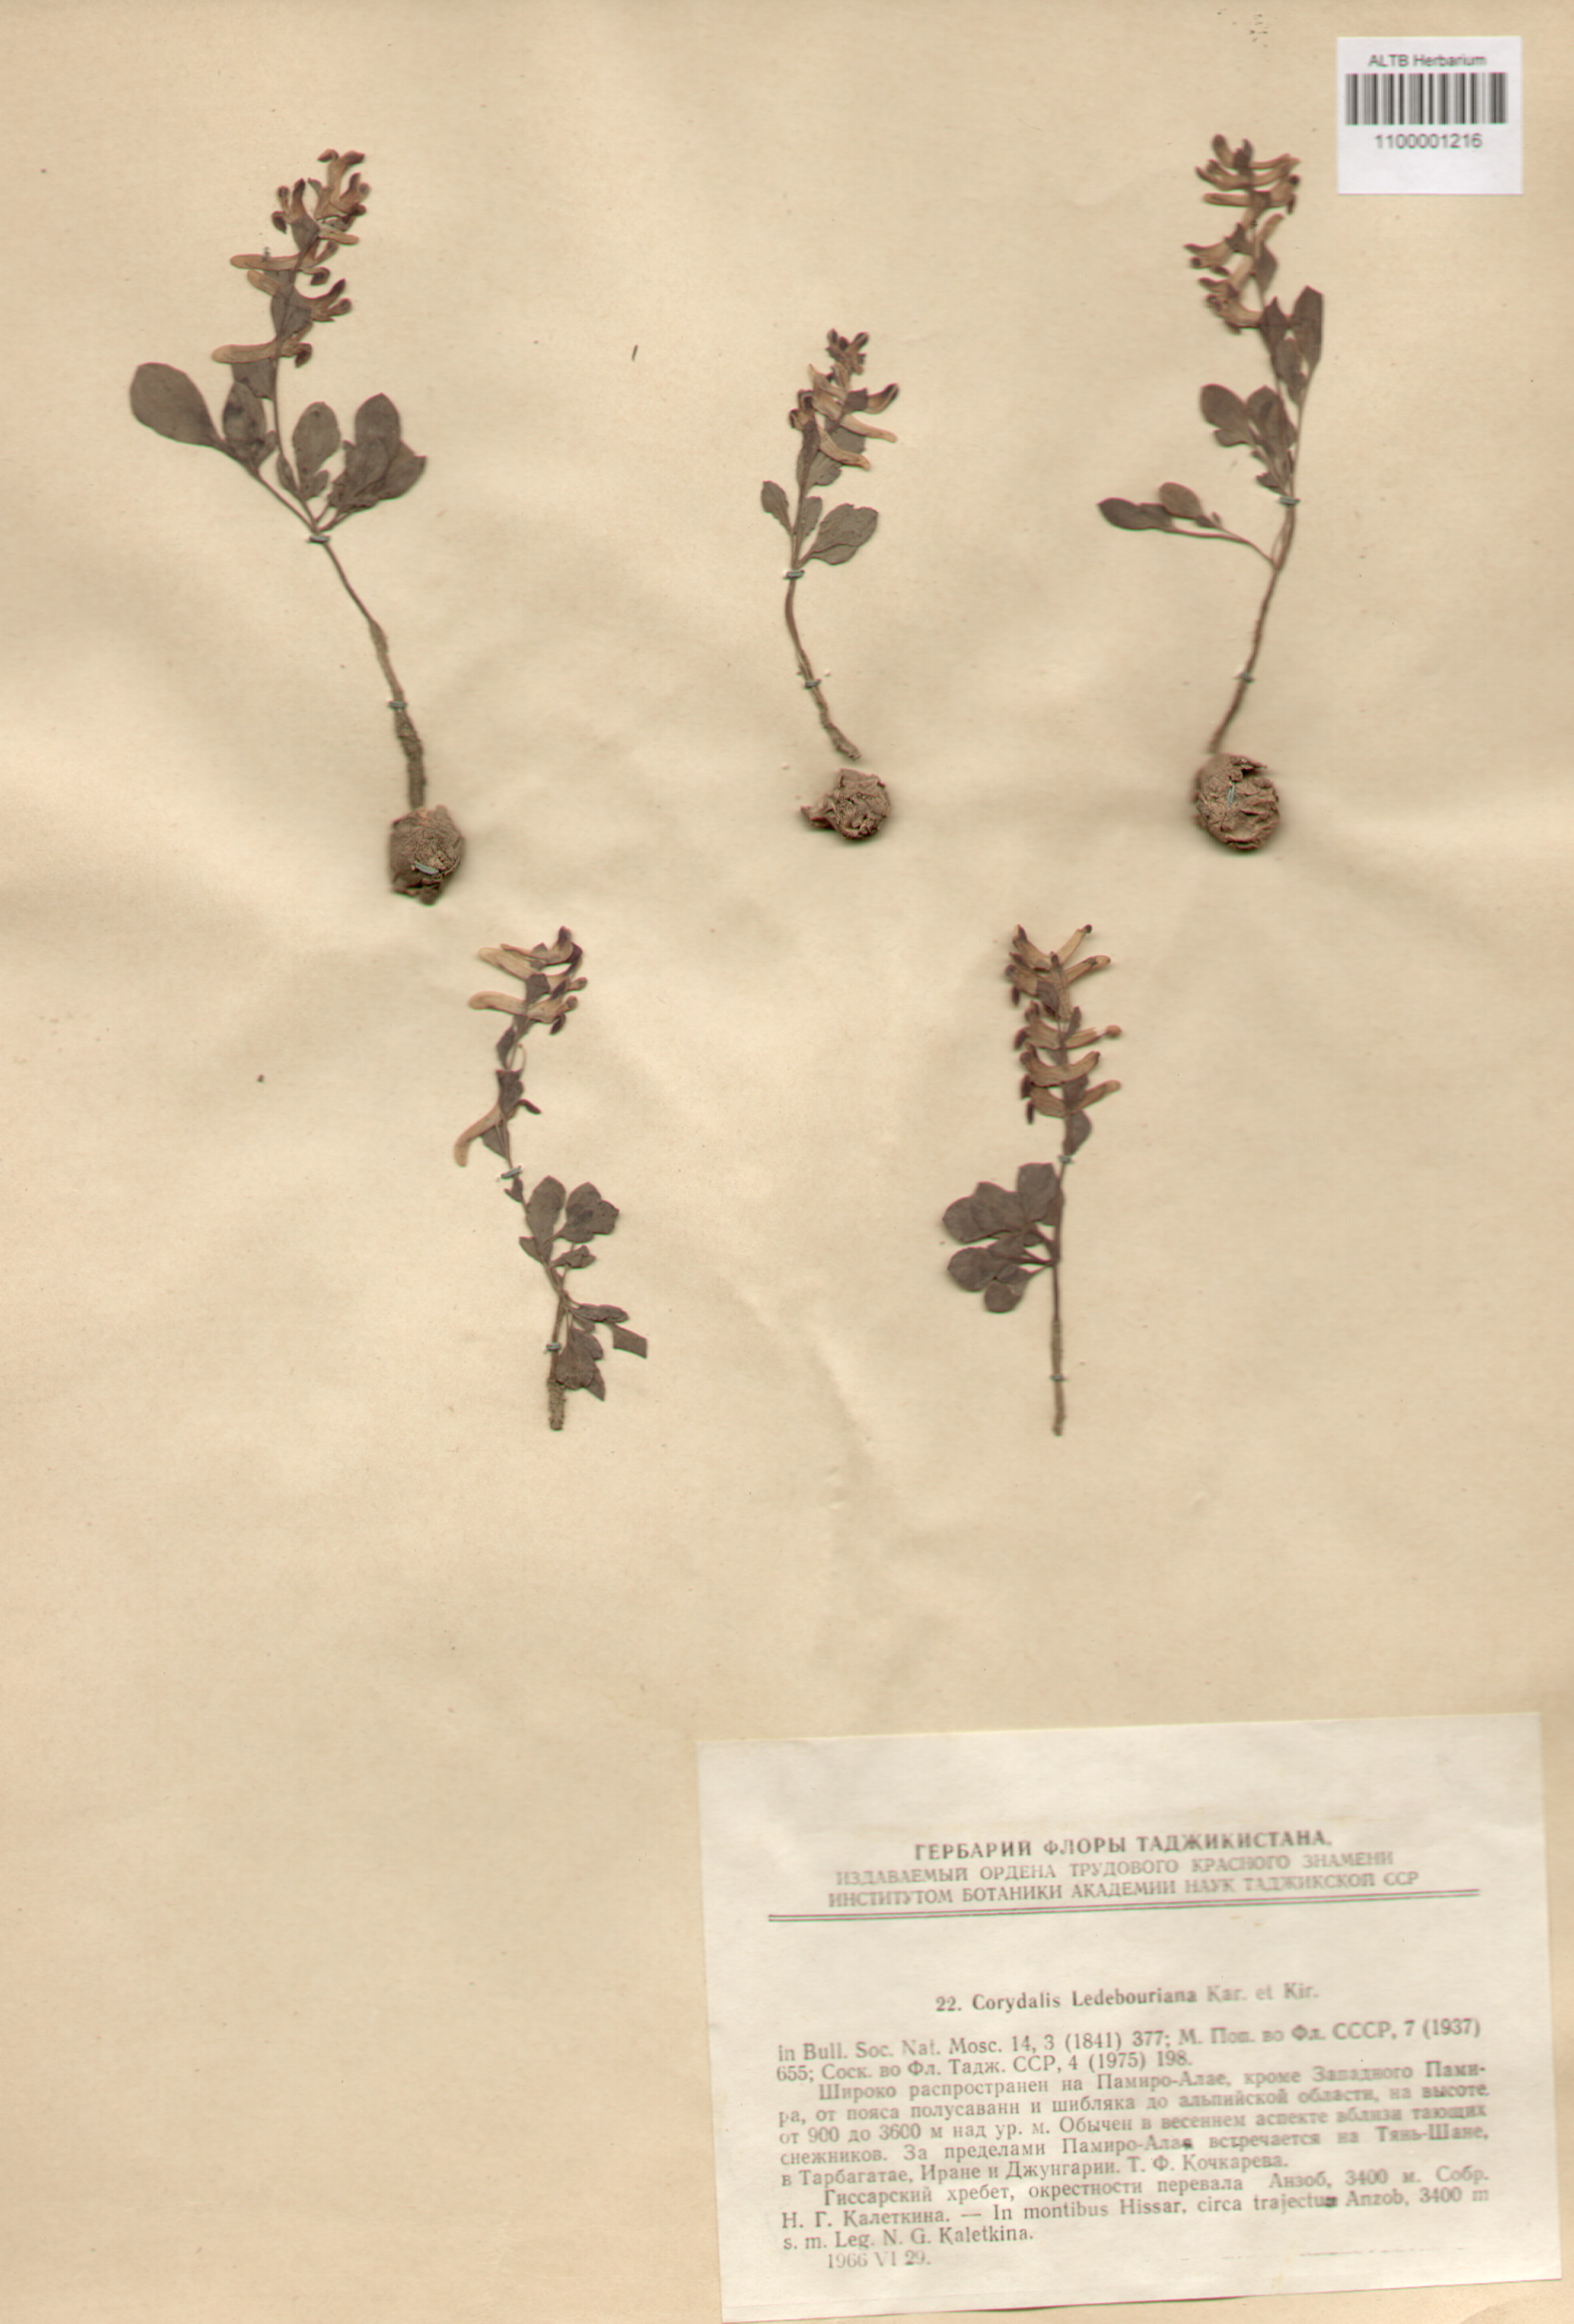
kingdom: Plantae
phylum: Tracheophyta
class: Magnoliopsida
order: Ranunculales
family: Papaveraceae
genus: Corydalis
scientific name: Corydalis ledebouriana
